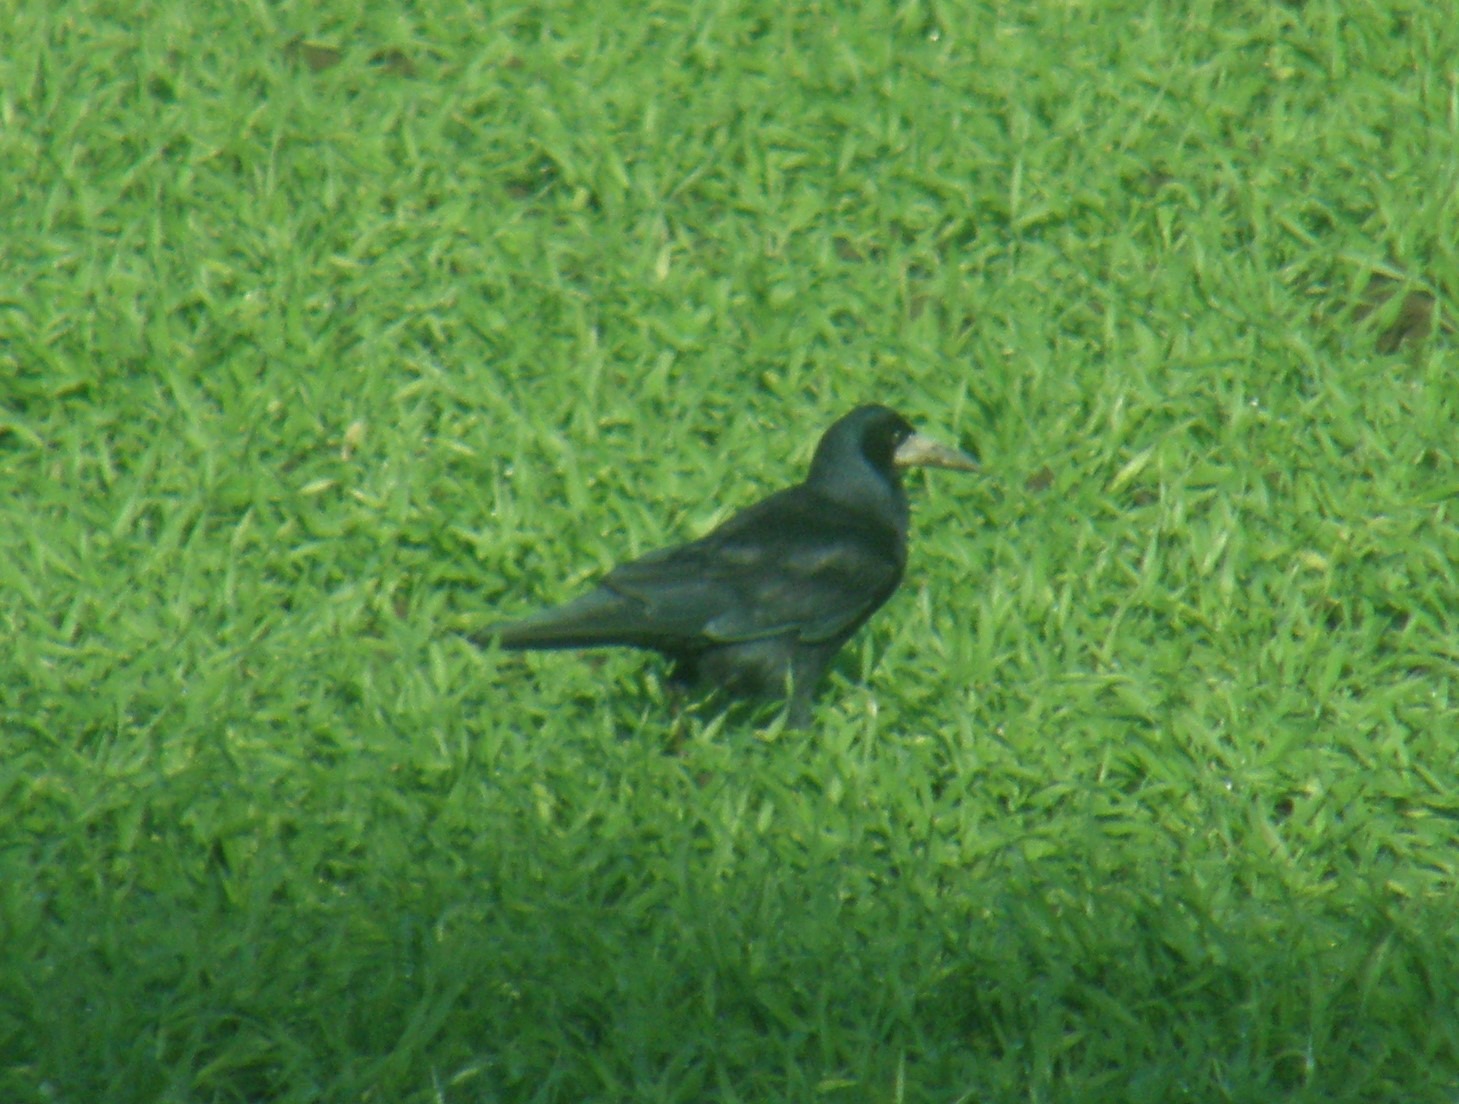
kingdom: Animalia
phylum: Chordata
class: Aves
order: Passeriformes
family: Corvidae
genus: Corvus
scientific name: Corvus frugilegus
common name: Råge
